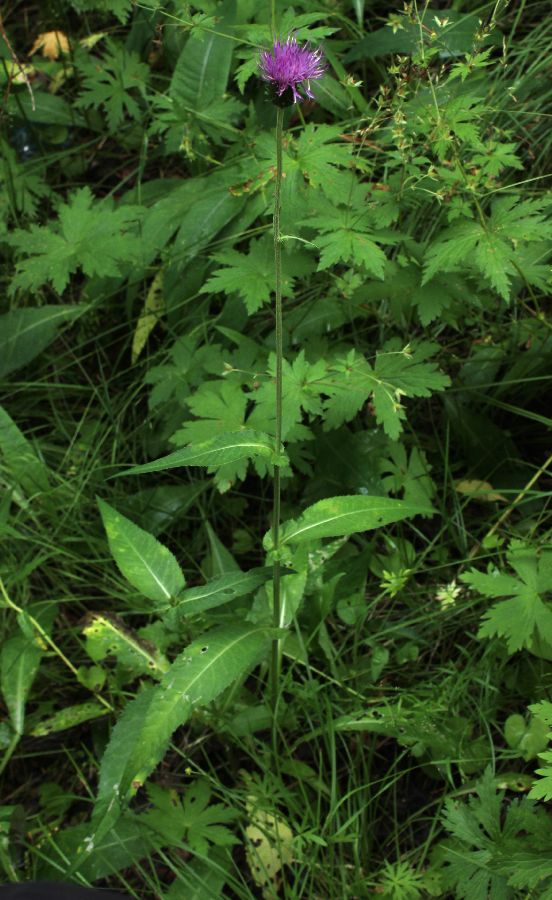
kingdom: Plantae
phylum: Tracheophyta
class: Magnoliopsida
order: Asterales
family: Asteraceae
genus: Cirsium
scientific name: Cirsium heterophyllum
